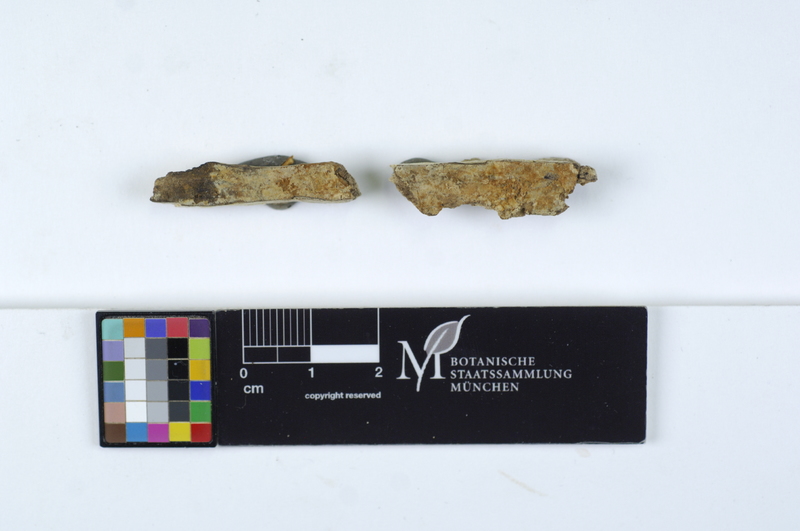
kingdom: Plantae
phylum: Tracheophyta
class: Magnoliopsida
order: Sapindales
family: Sapindaceae
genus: Aesculus
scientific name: Aesculus
